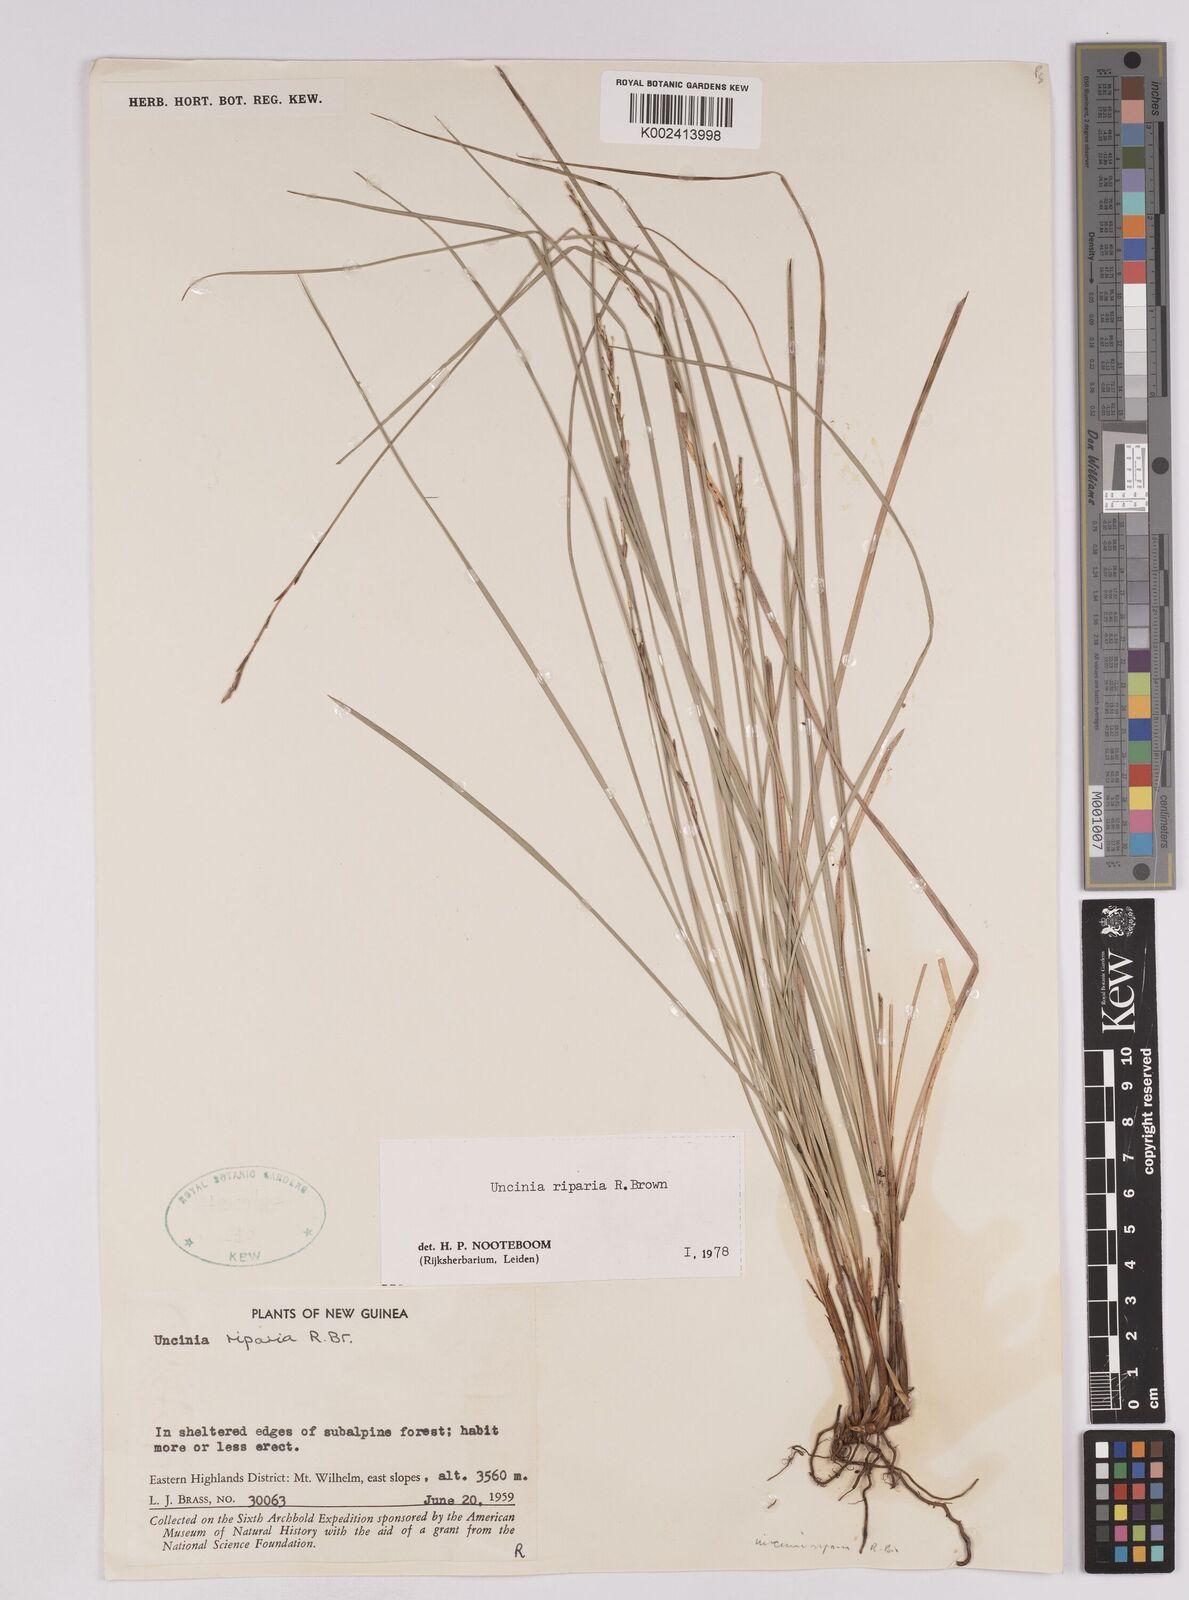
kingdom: Plantae
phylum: Tracheophyta
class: Liliopsida
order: Poales
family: Cyperaceae
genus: Carex
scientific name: Carex sclerophylla
